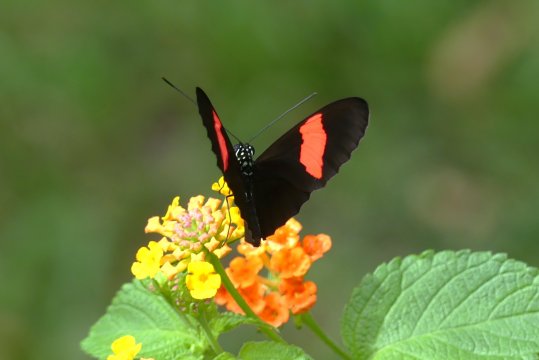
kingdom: Animalia
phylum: Arthropoda
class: Insecta
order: Lepidoptera
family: Nymphalidae
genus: Heliconius
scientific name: Heliconius erato
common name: Erato Heliconian
